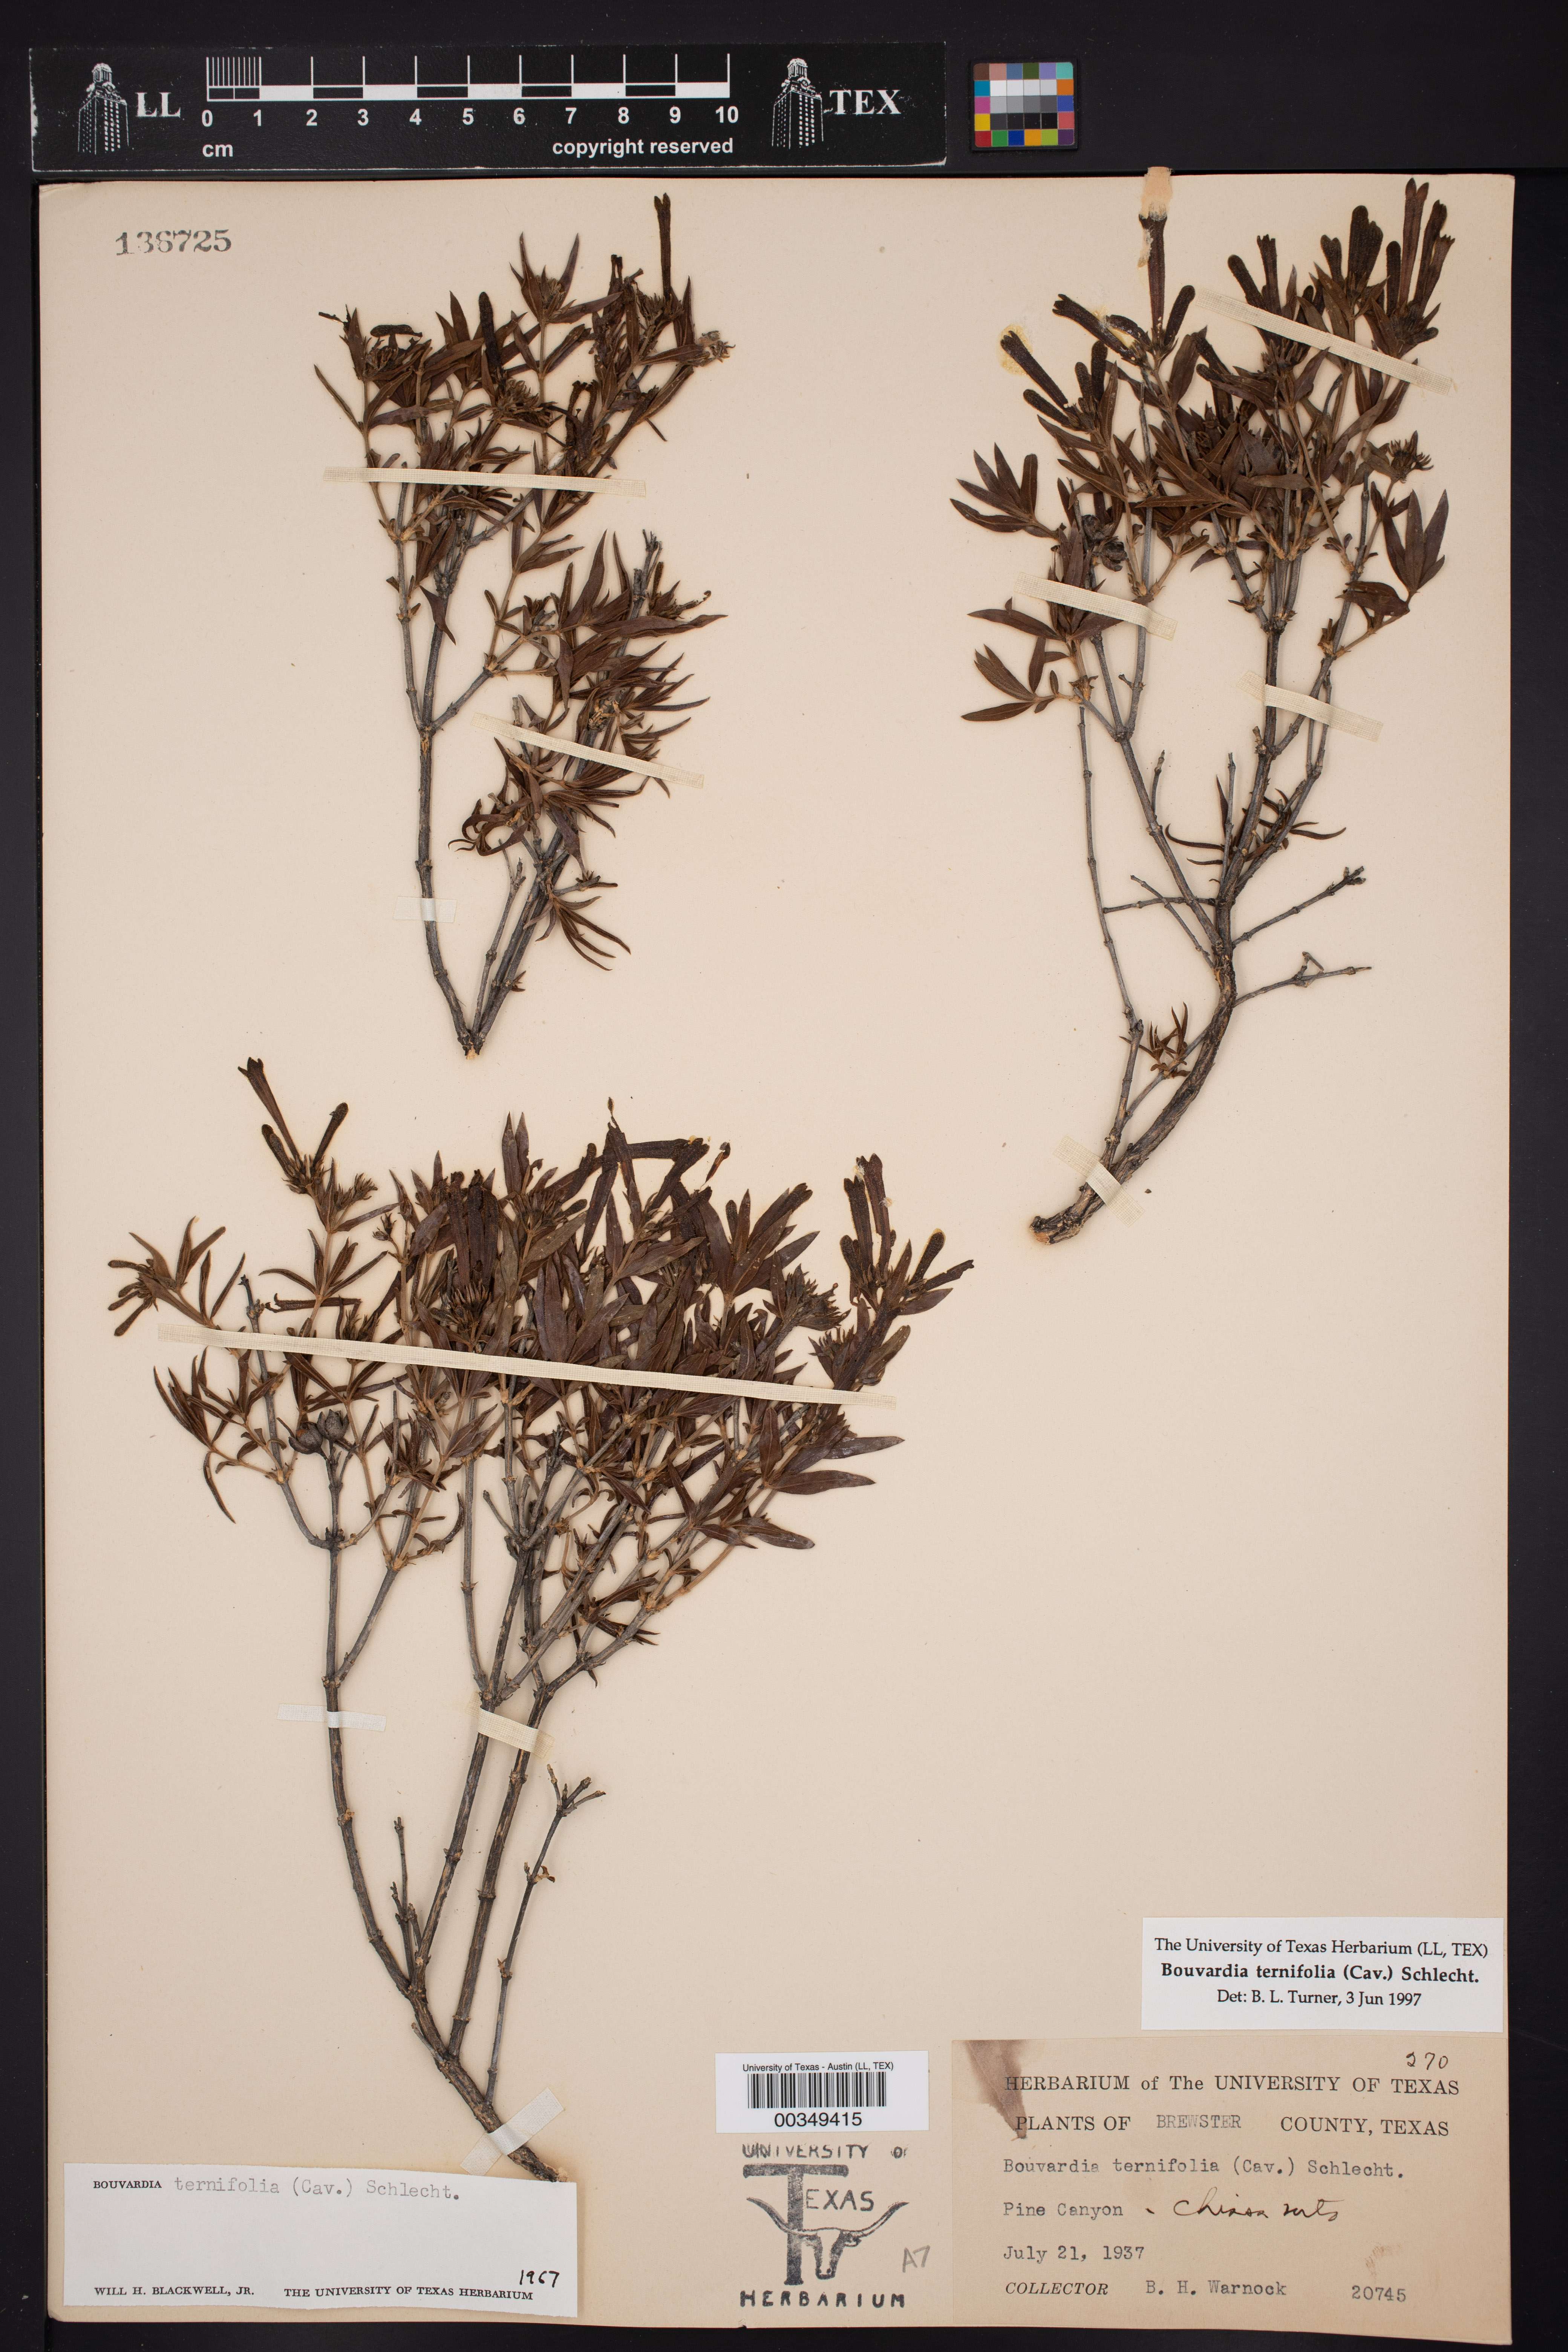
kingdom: Plantae
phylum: Tracheophyta
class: Magnoliopsida
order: Gentianales
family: Rubiaceae
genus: Bouvardia
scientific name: Bouvardia ternifolia
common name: Scarlet bouvardia
